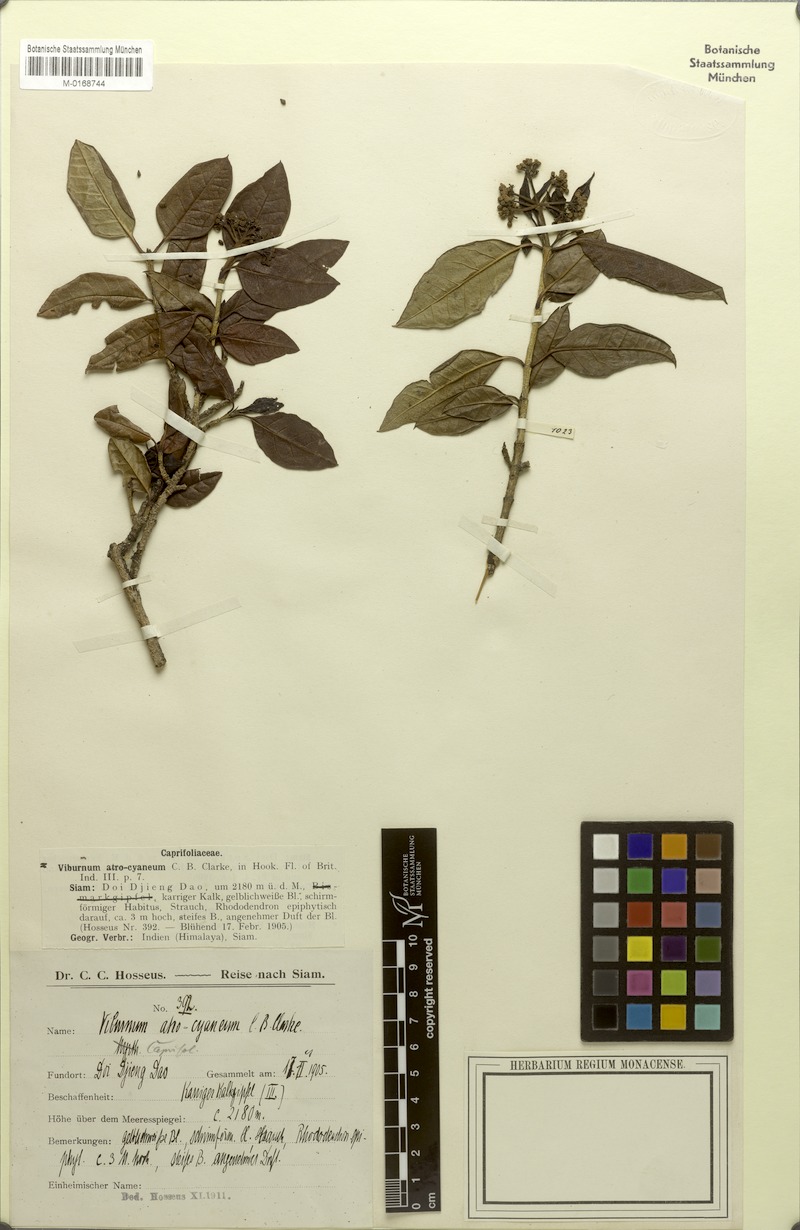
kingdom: Plantae
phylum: Tracheophyta
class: Magnoliopsida
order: Dipsacales
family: Viburnaceae
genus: Viburnum
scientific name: Viburnum atrocyaneum
